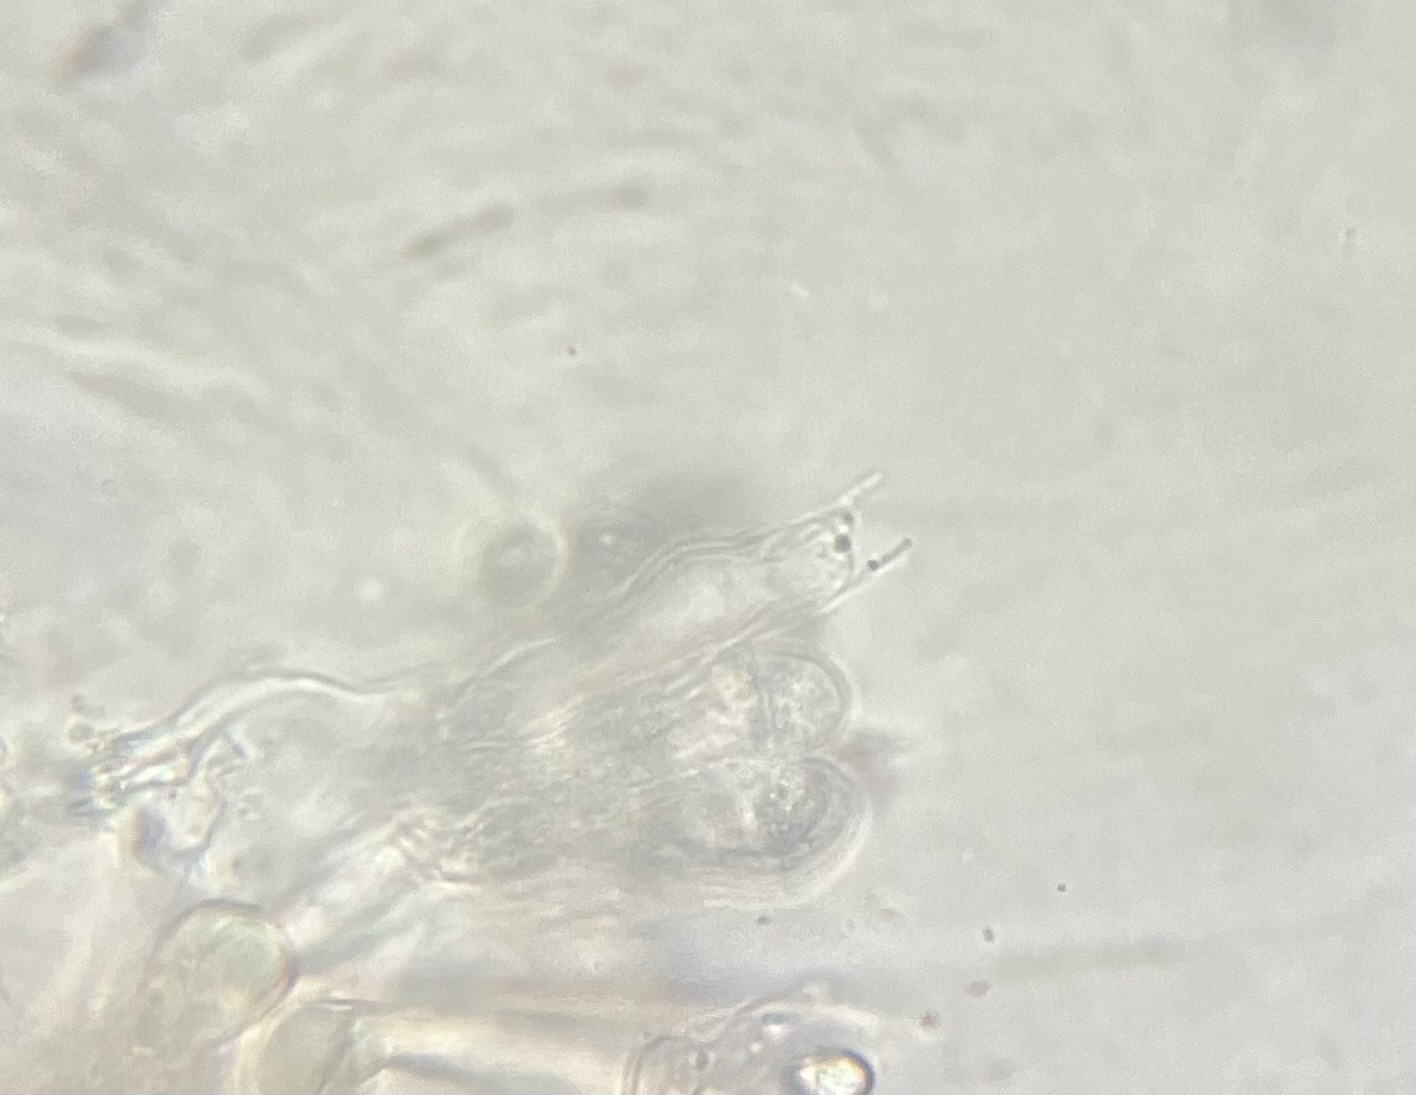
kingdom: Fungi
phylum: Basidiomycota
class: Agaricomycetes
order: Corticiales
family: Corticiaceae
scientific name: Corticiaceae
